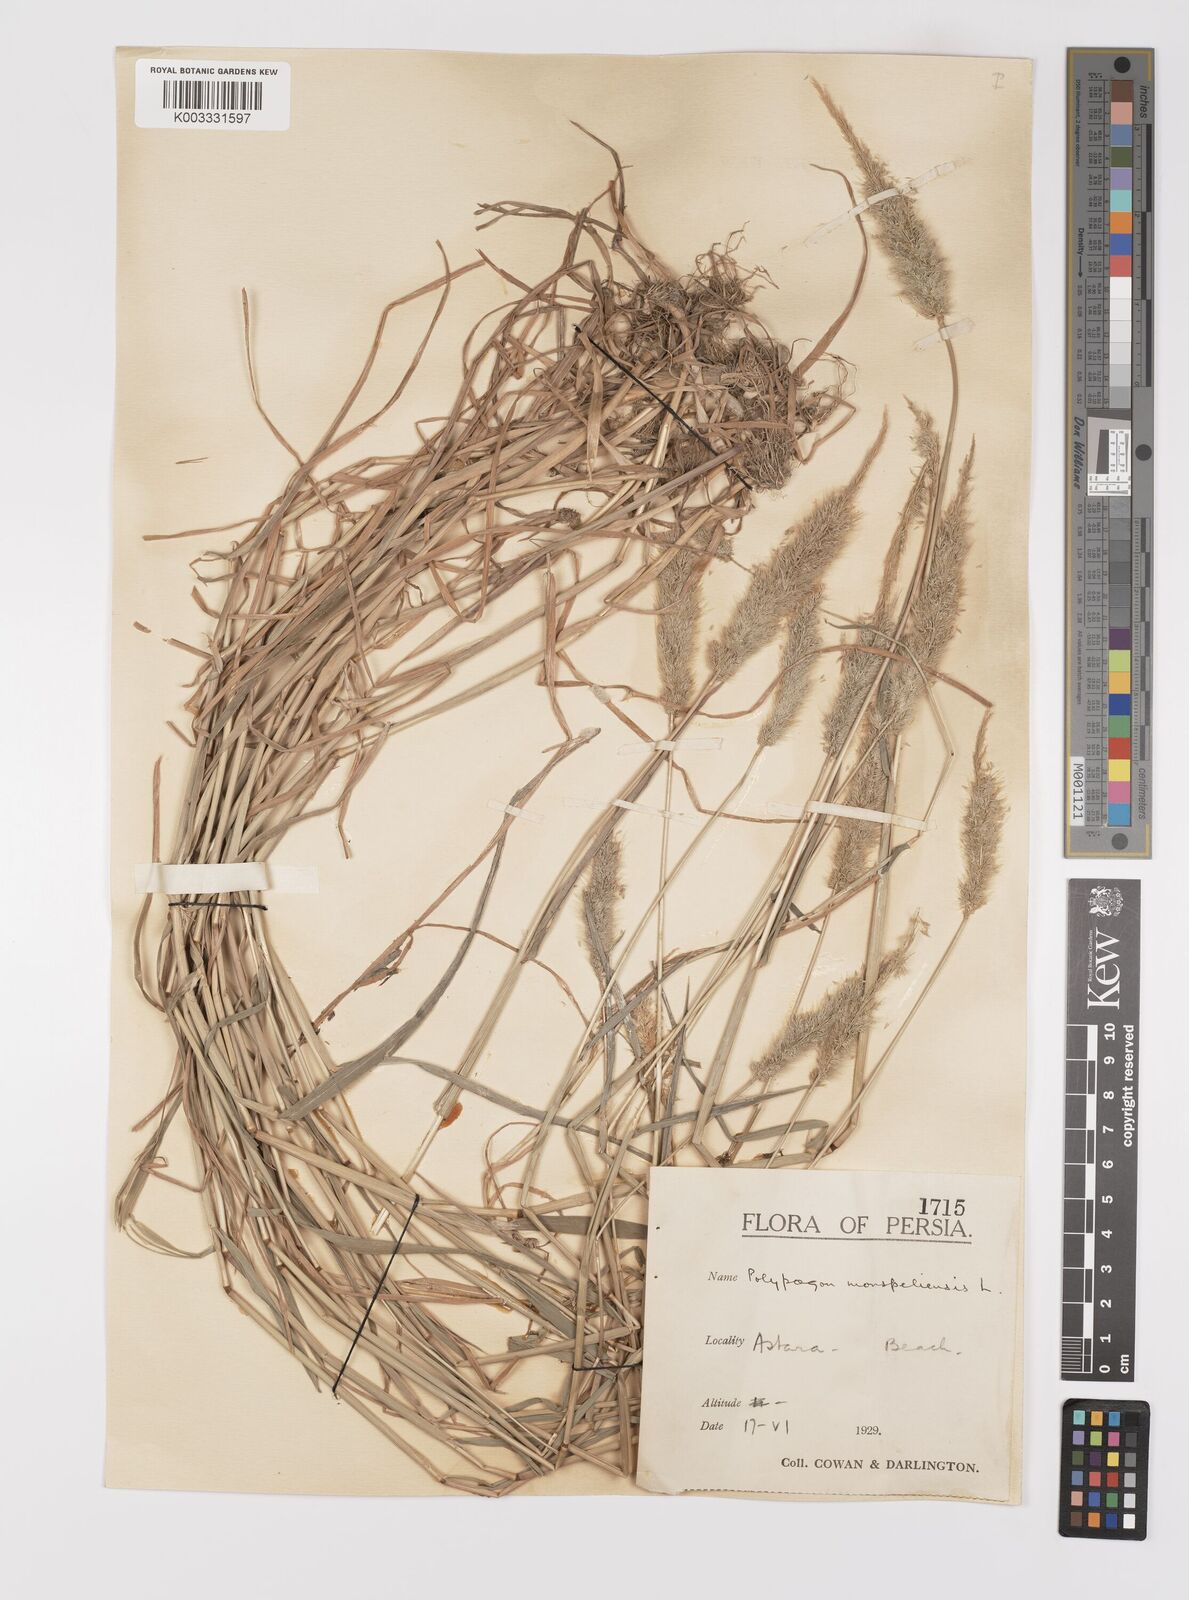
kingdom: Plantae
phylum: Tracheophyta
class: Liliopsida
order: Poales
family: Poaceae
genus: Polypogon
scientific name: Polypogon monspeliensis
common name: Annual rabbitsfoot grass
